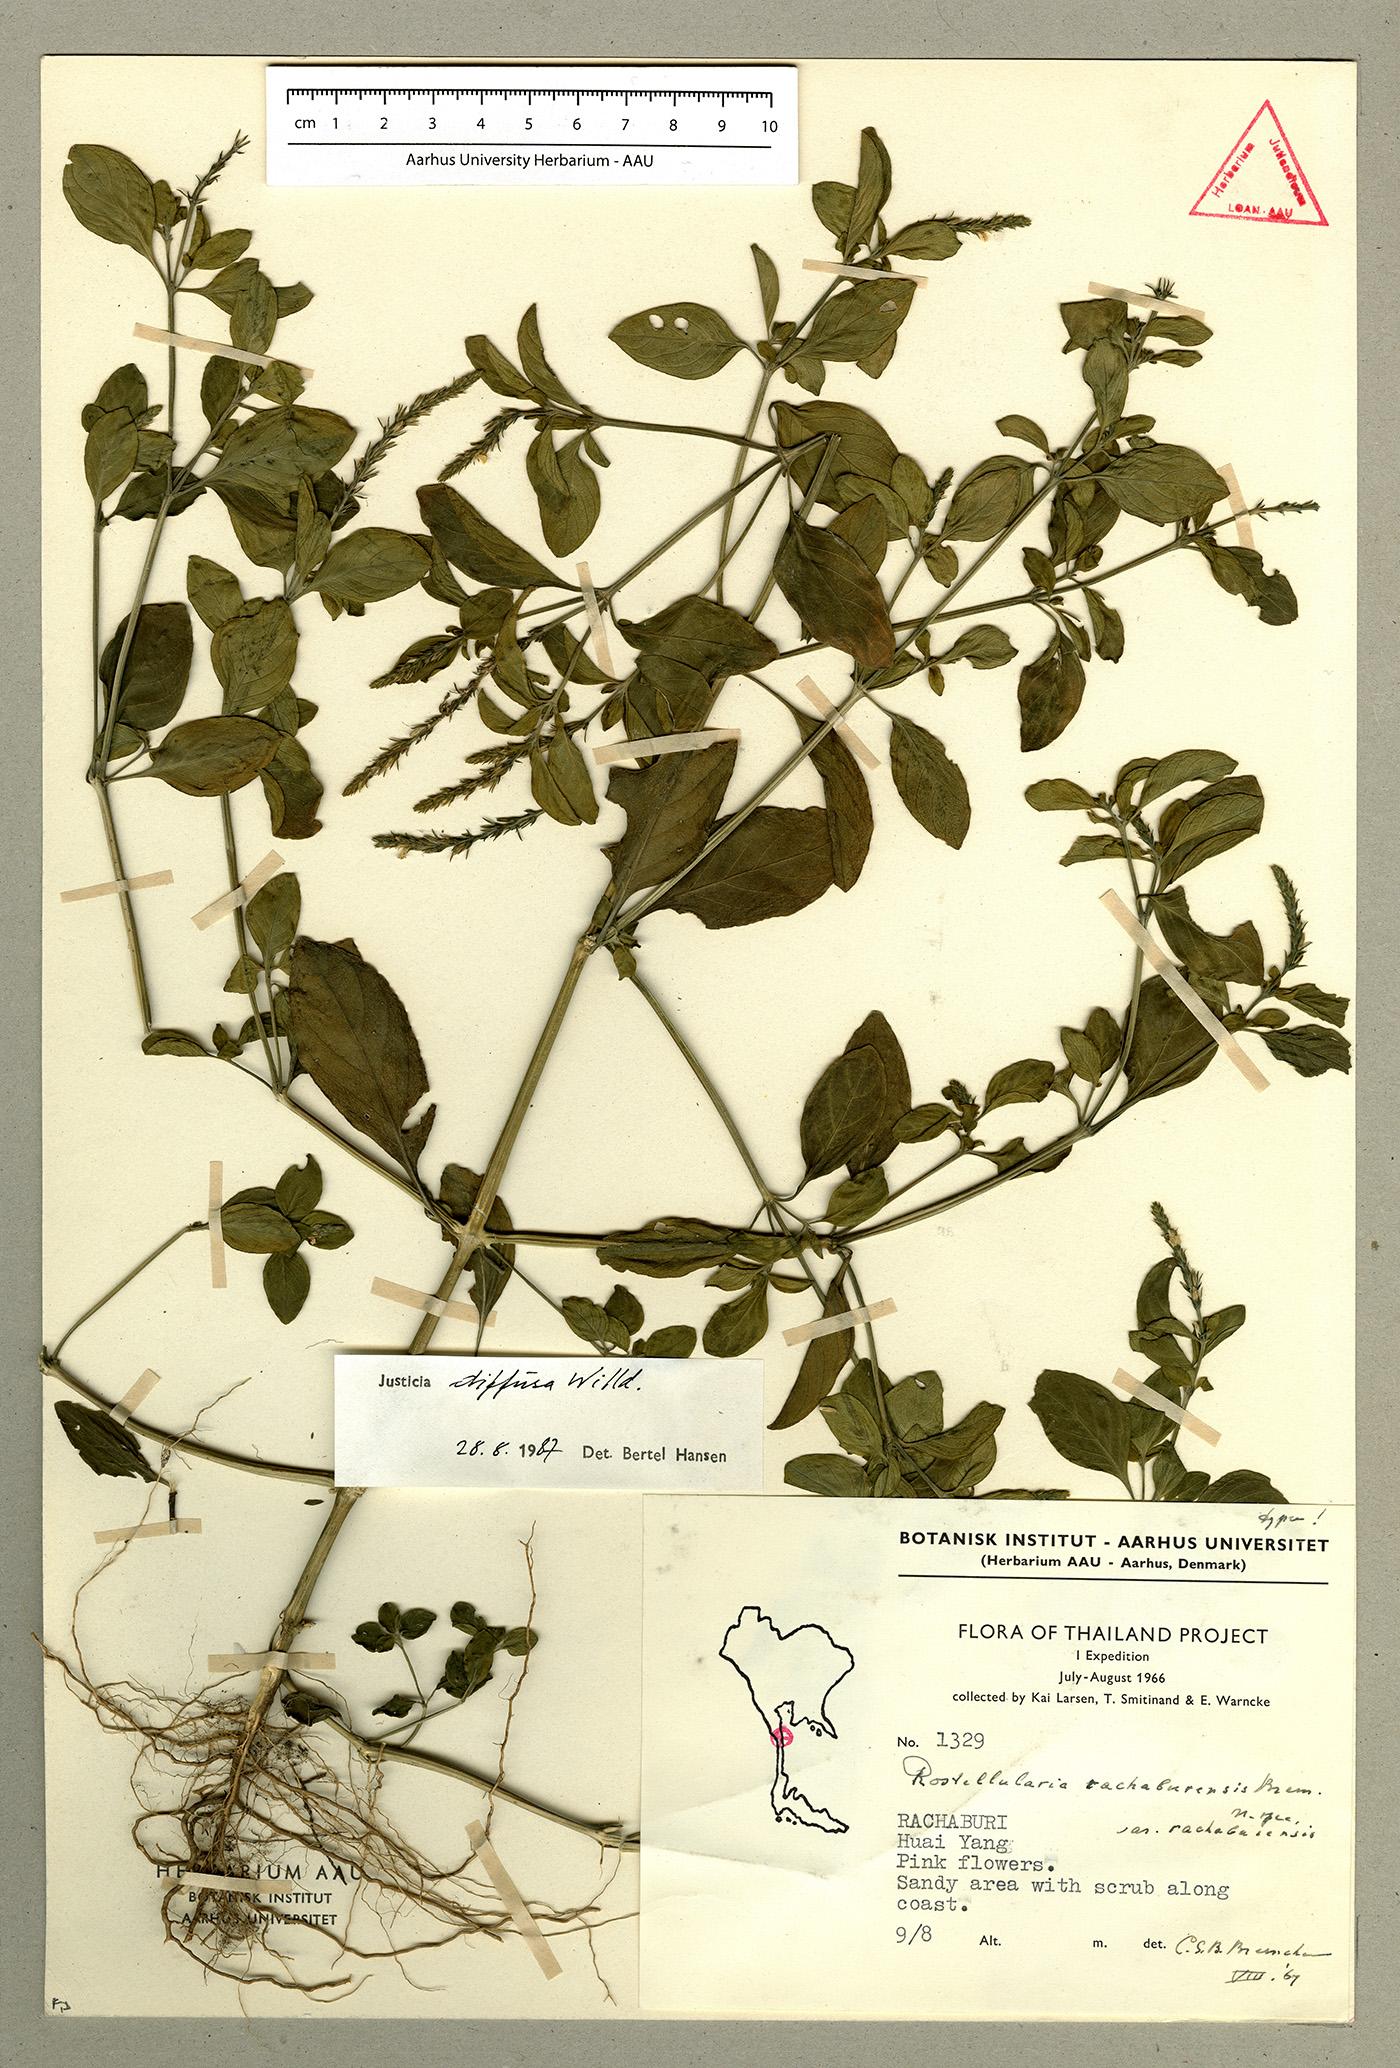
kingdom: Plantae
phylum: Tracheophyta
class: Magnoliopsida
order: Lamiales
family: Acanthaceae
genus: Rostellularia
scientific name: Rostellularia diffusa
